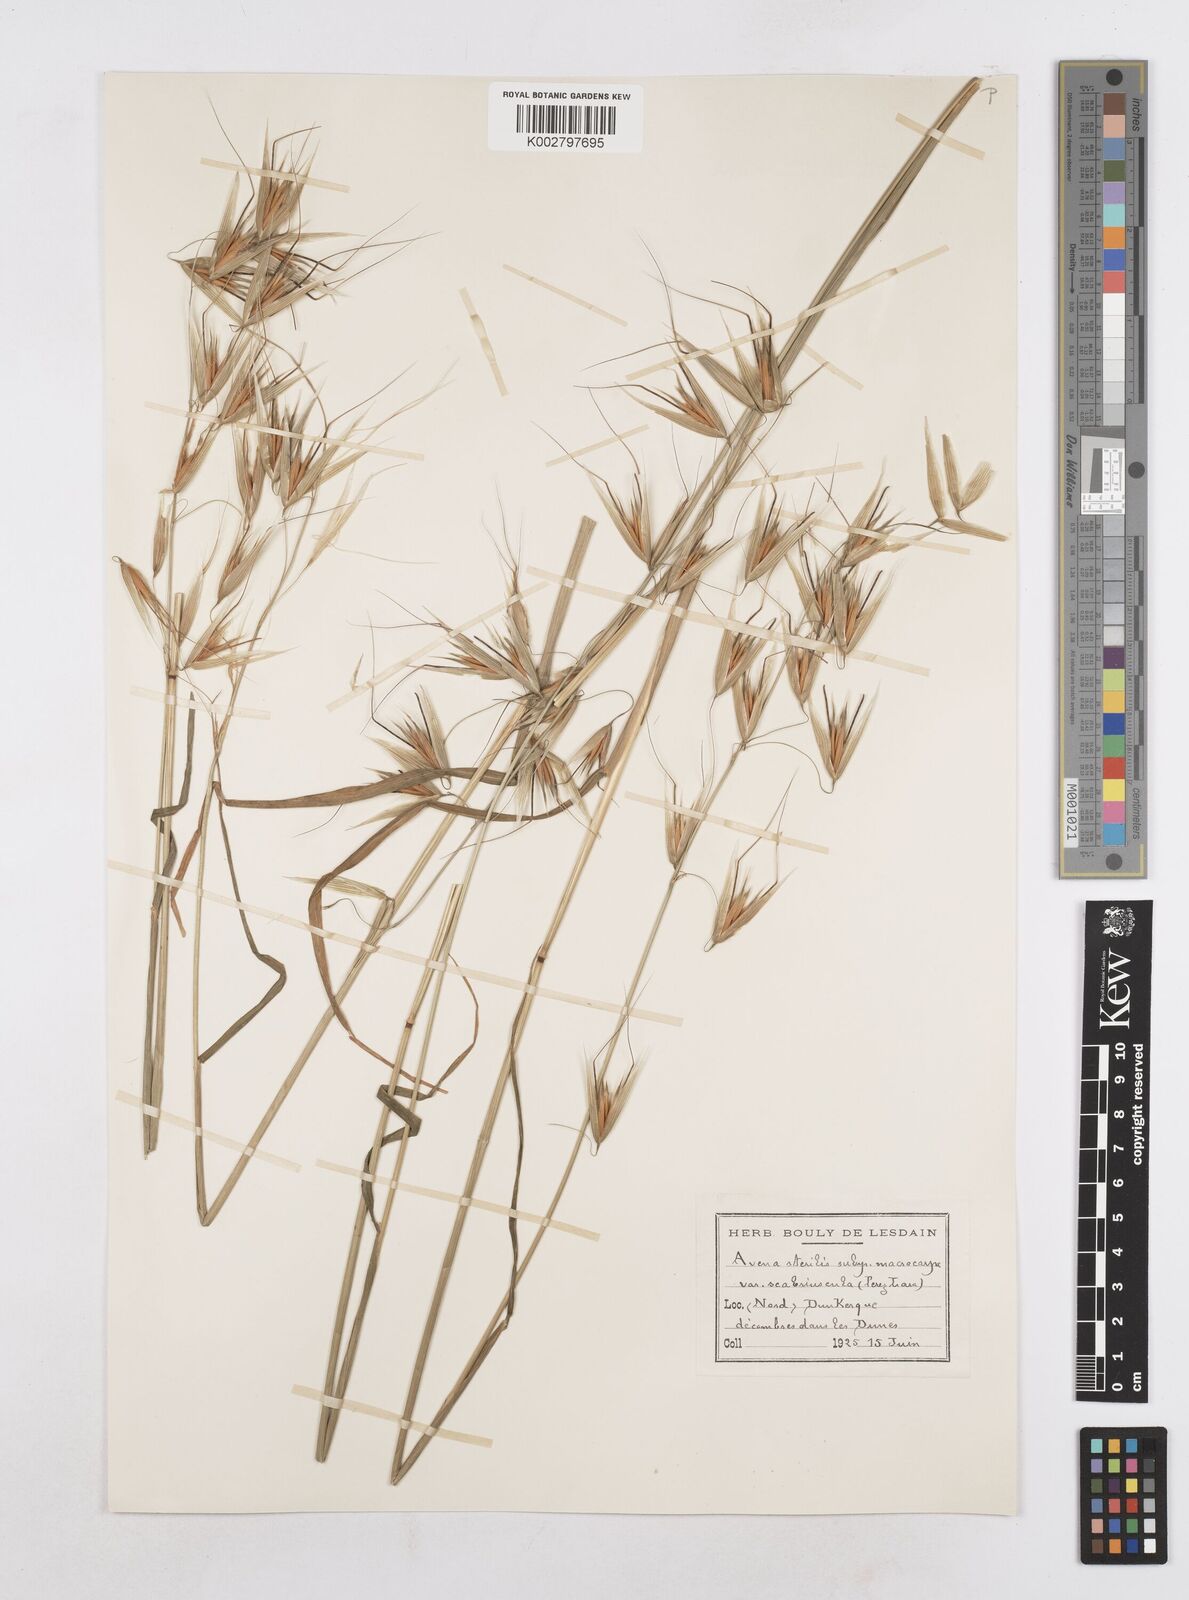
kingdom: Plantae
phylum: Tracheophyta
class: Liliopsida
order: Poales
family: Poaceae
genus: Avena
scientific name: Avena sterilis
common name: Animated oat
